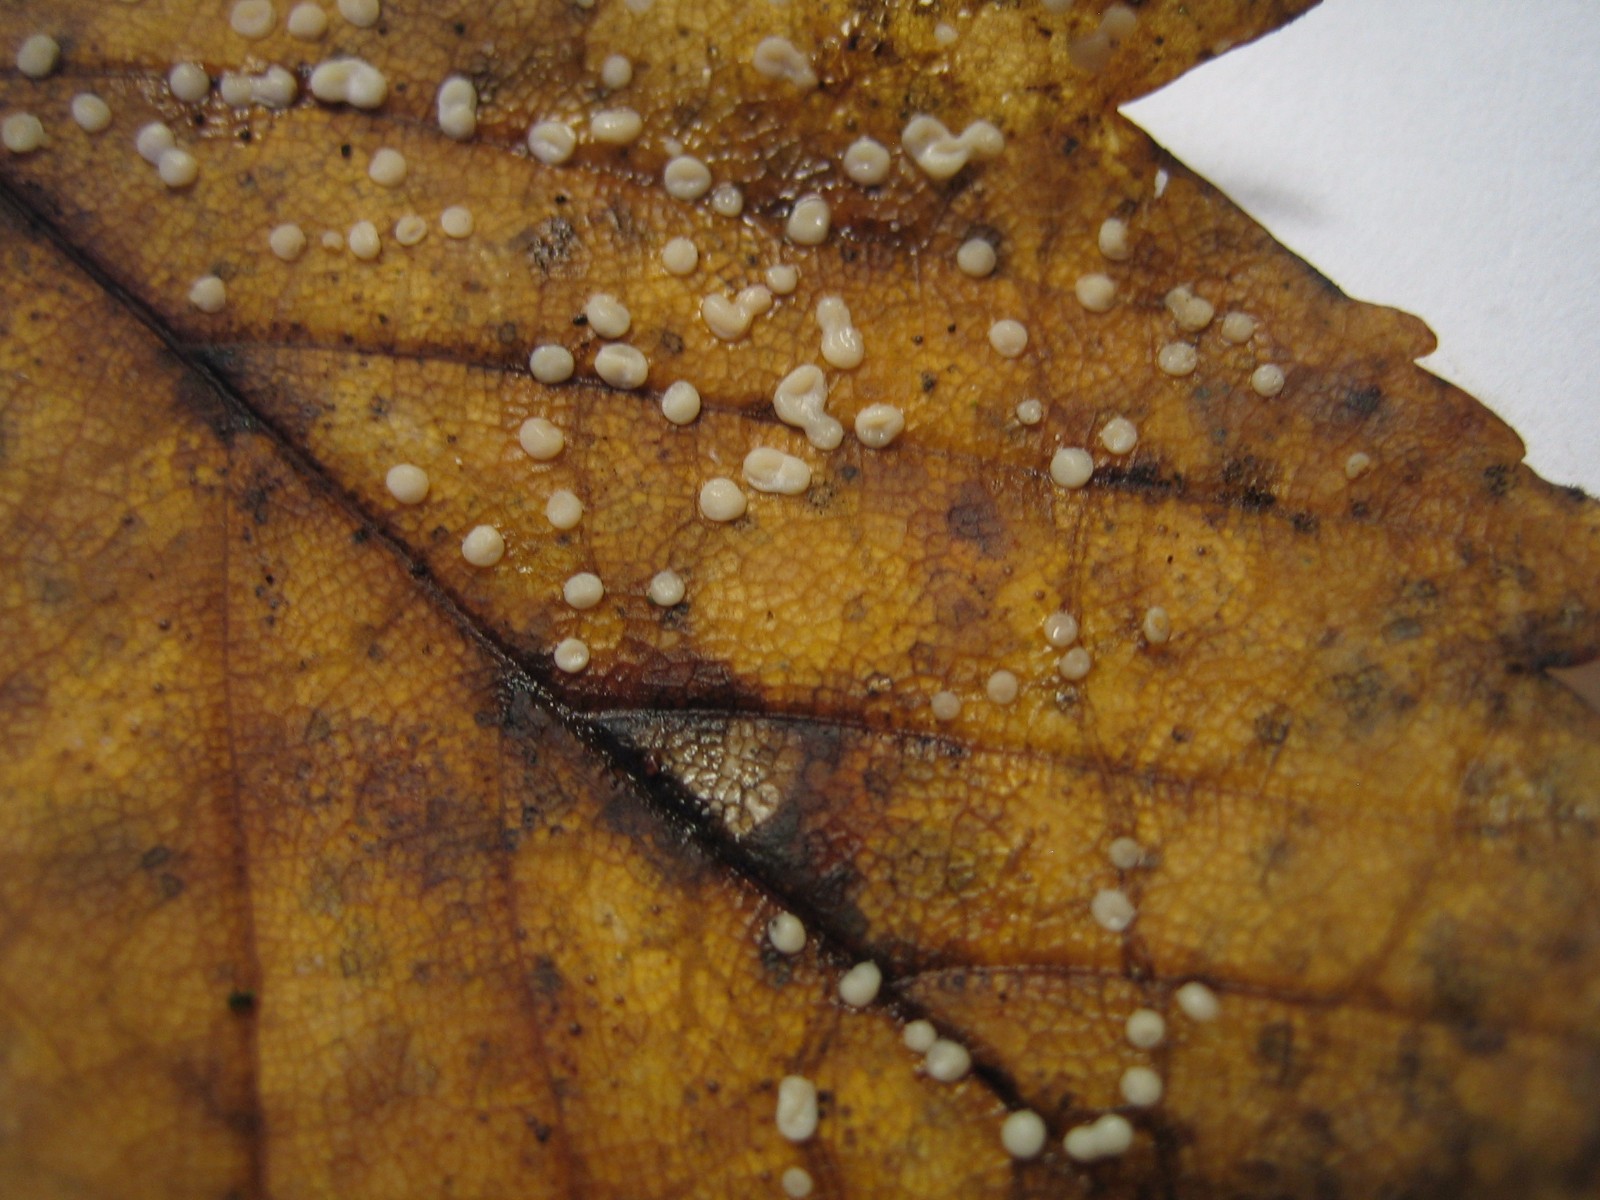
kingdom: Fungi
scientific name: Fungi
